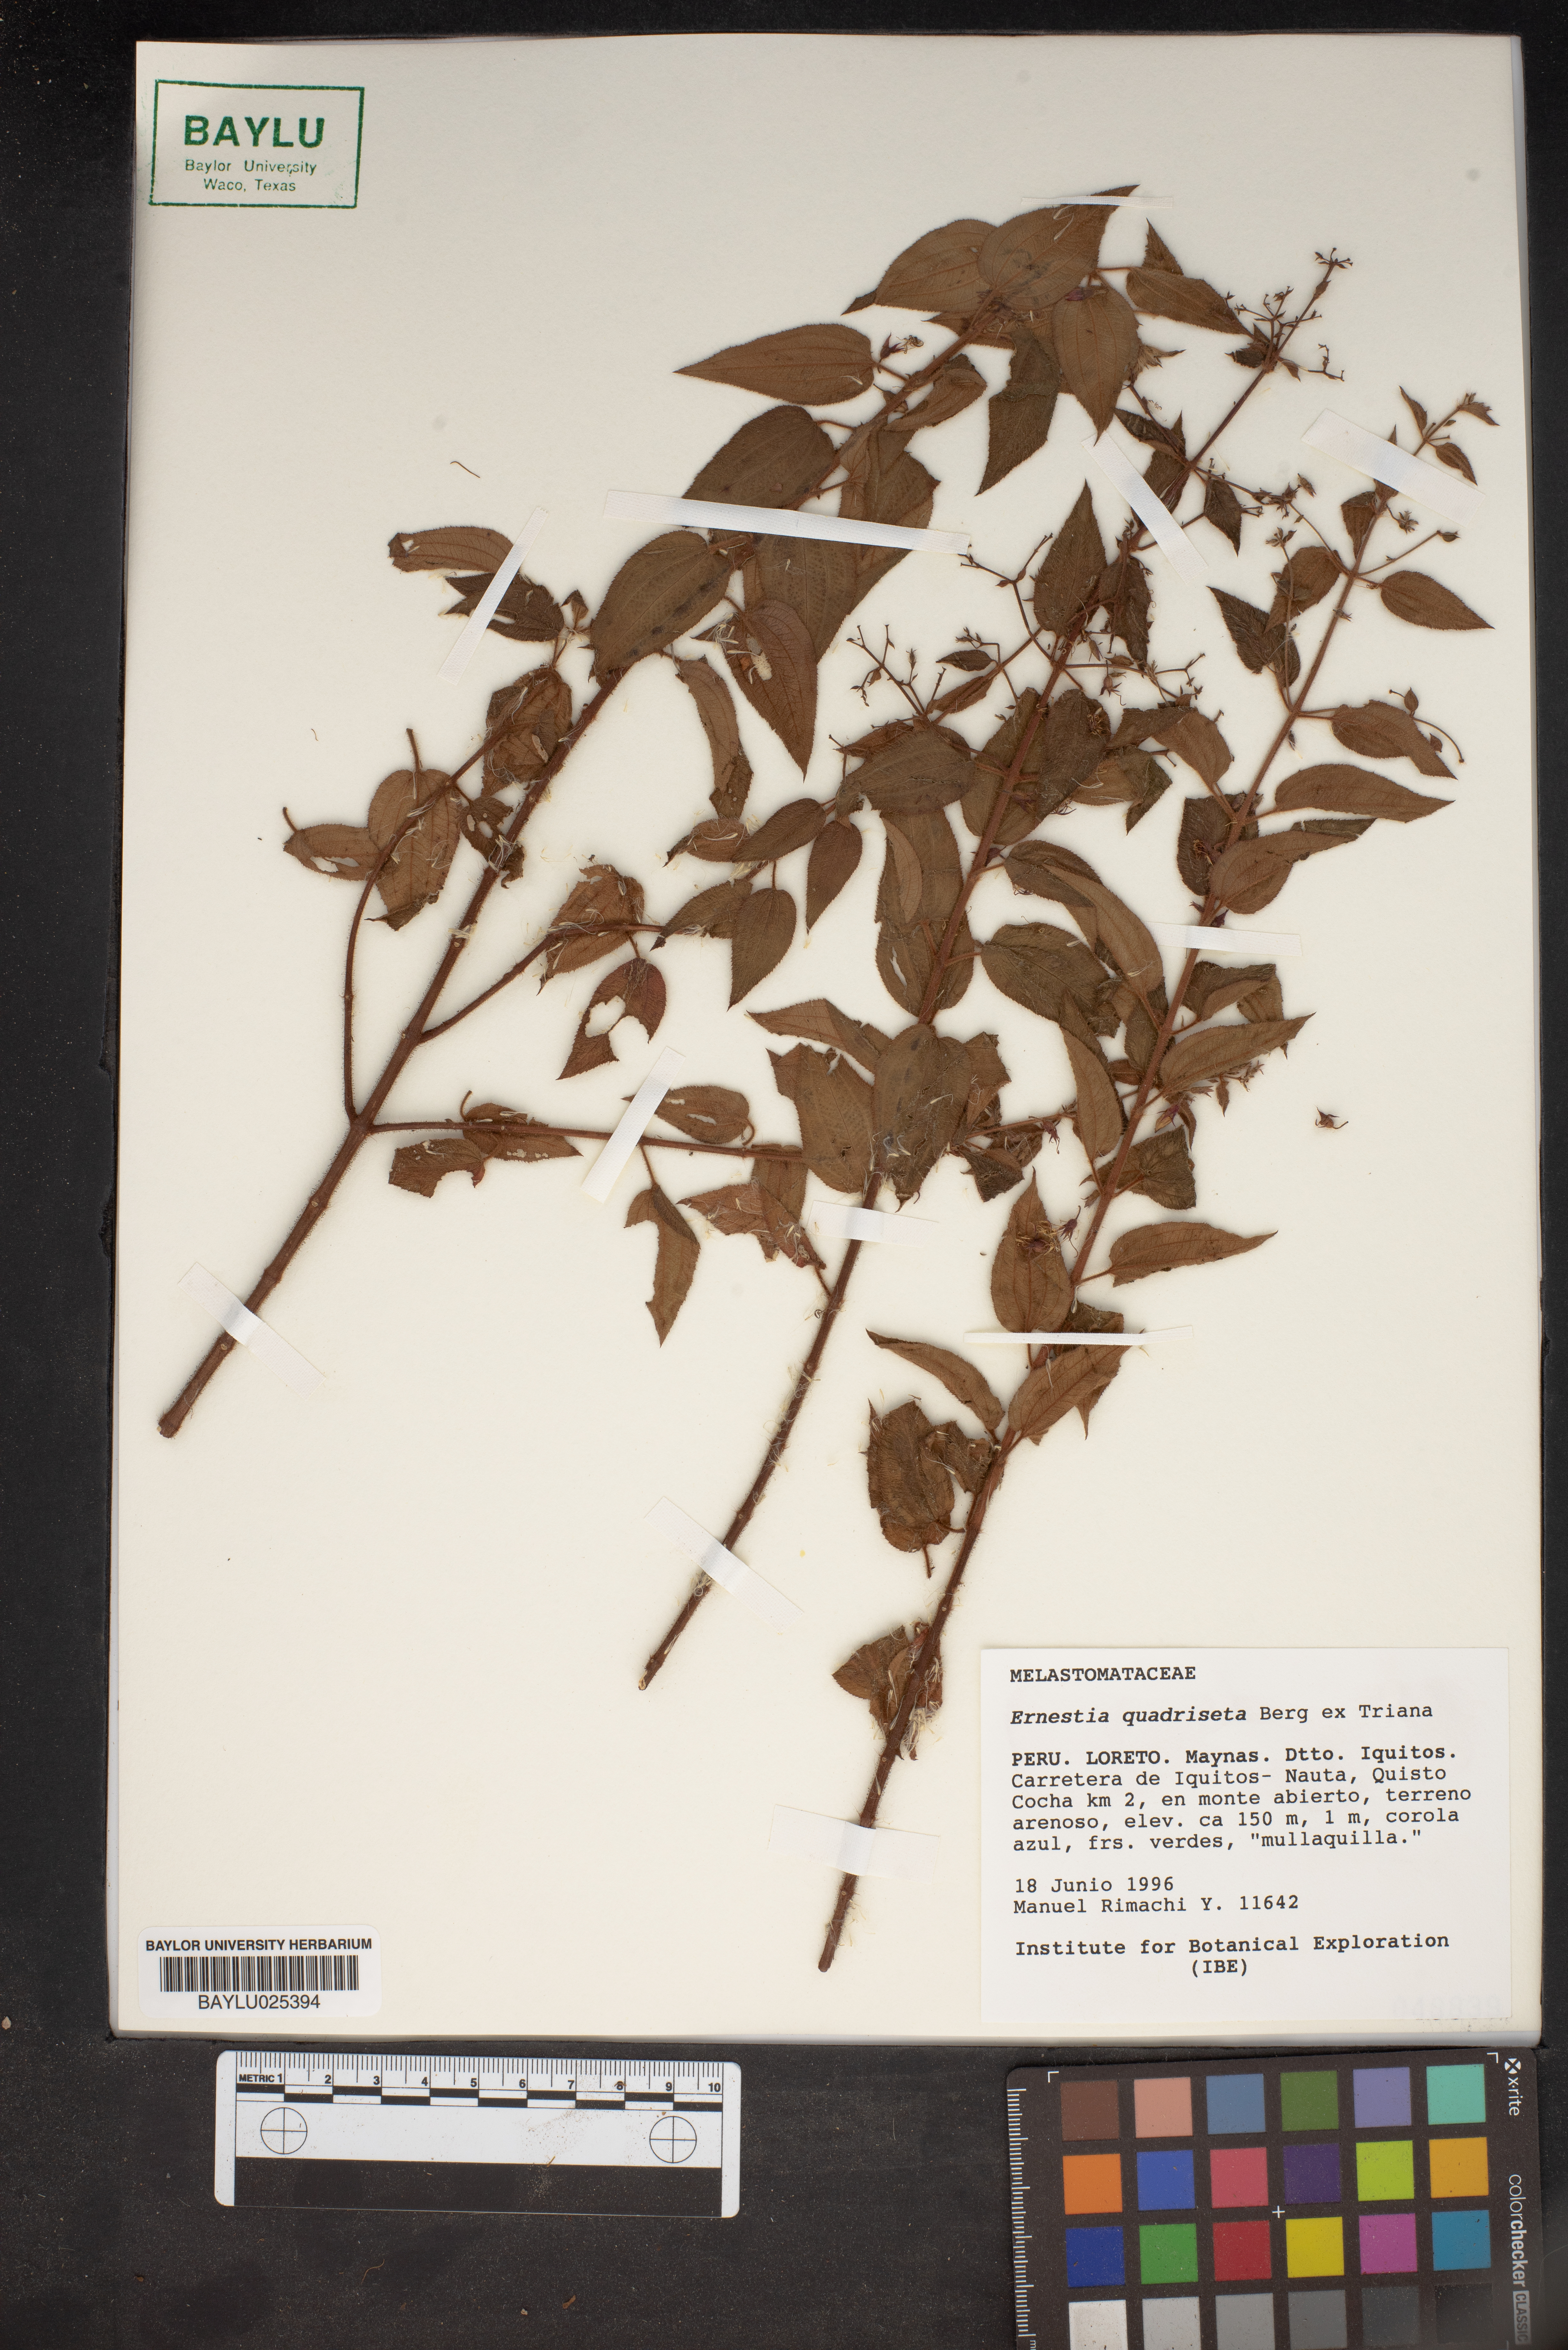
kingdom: Plantae
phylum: Tracheophyta
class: Magnoliopsida
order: Myrtales
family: Melastomataceae
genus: Ernestia
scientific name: Ernestia quadriseta
